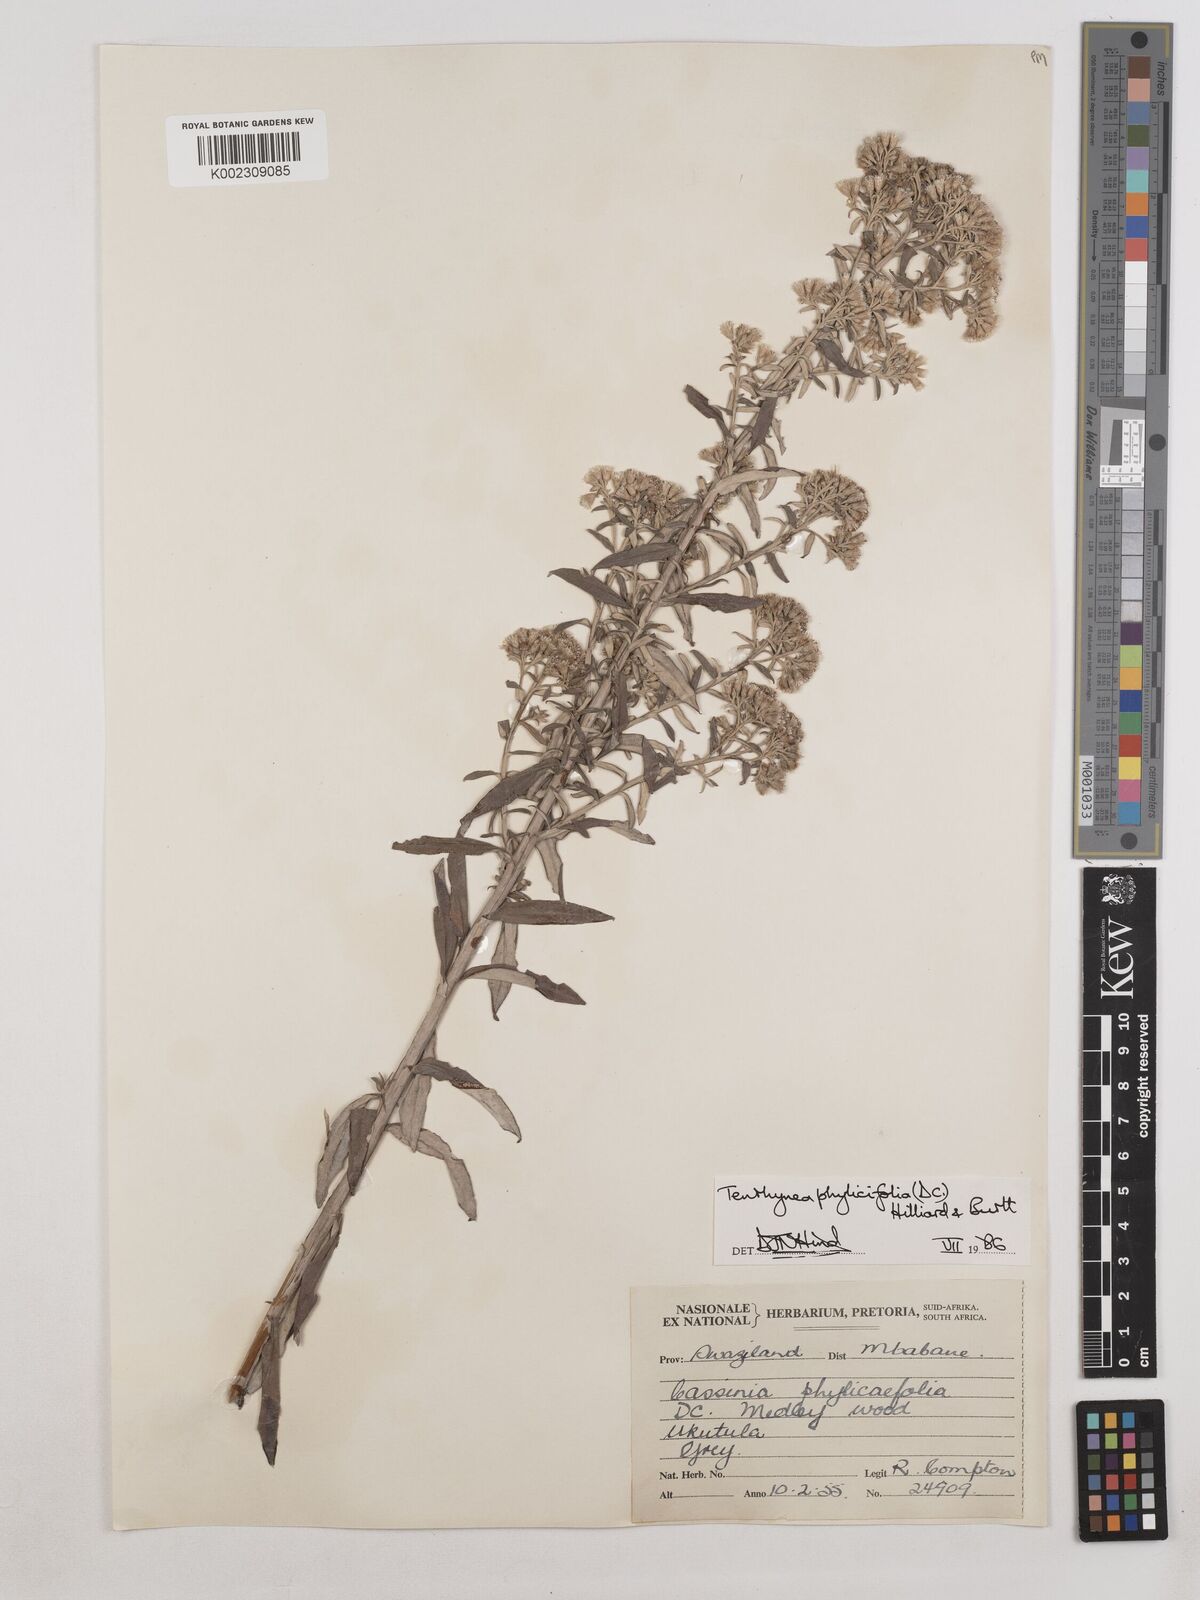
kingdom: Plantae
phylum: Tracheophyta
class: Magnoliopsida
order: Asterales
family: Asteraceae
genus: Tenrhynea
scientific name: Tenrhynea phylicifolia
